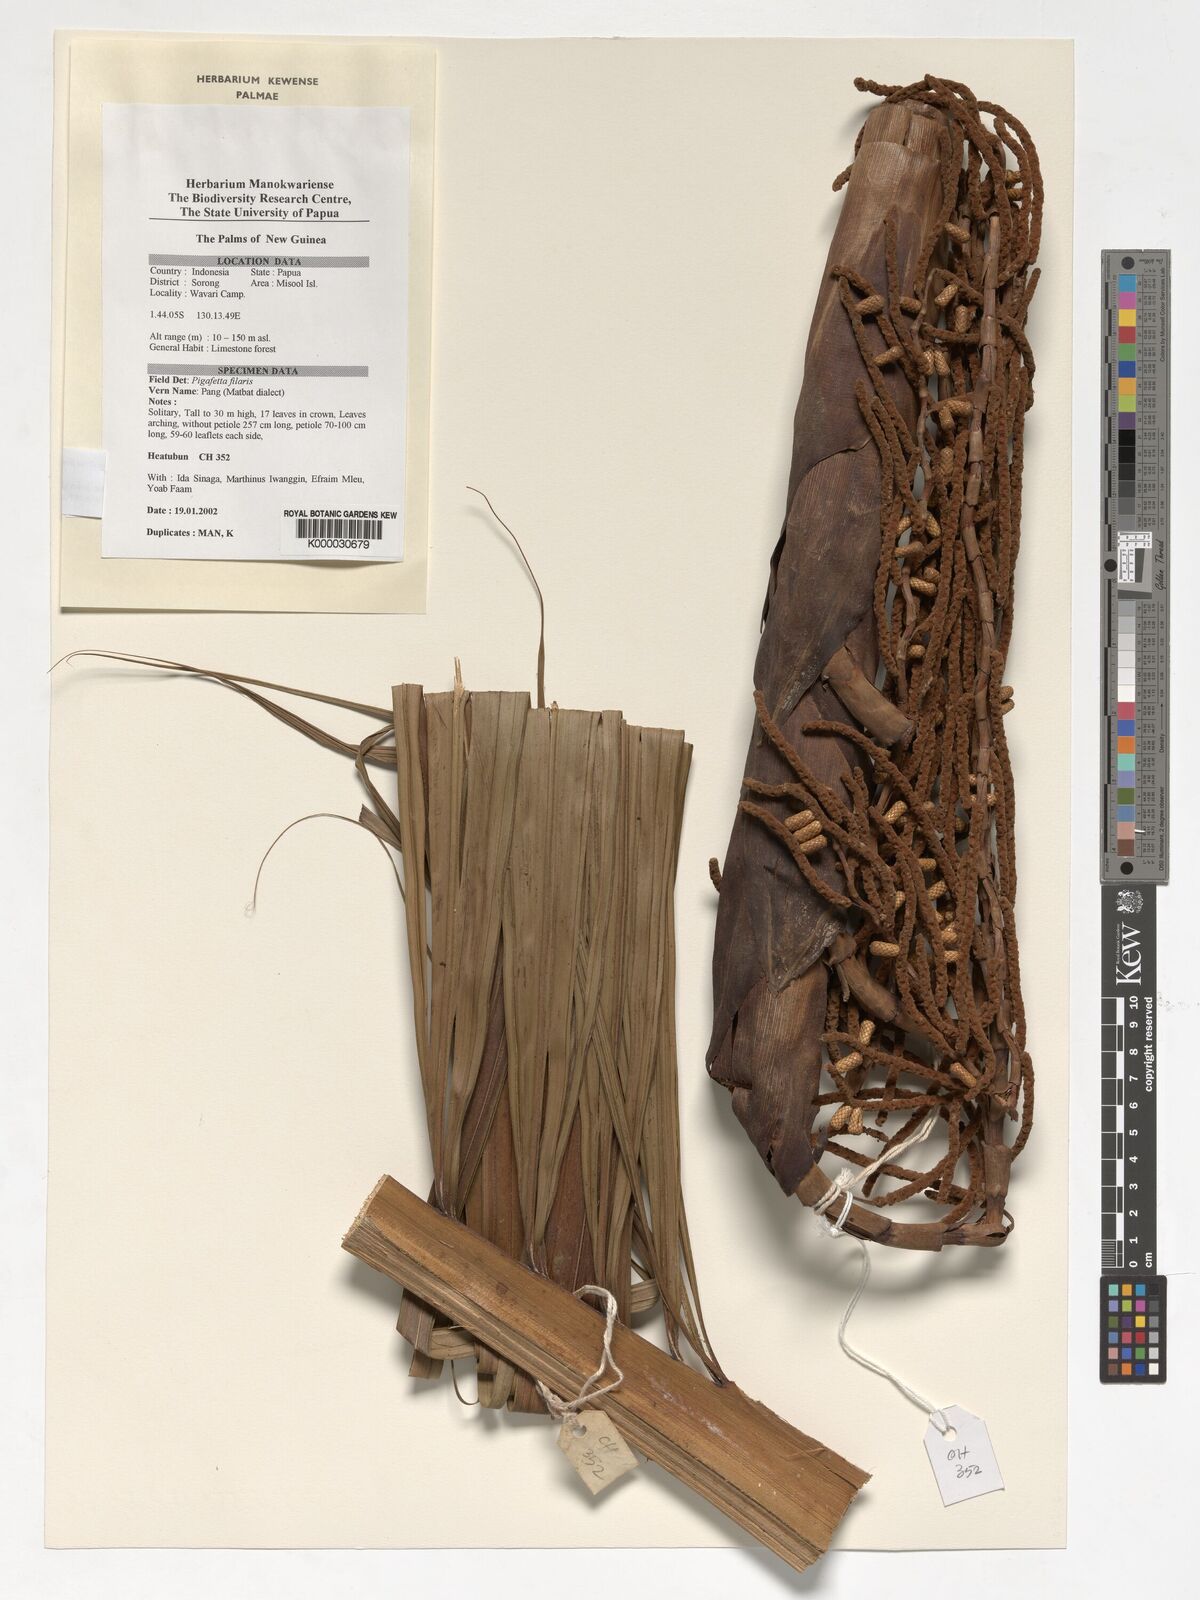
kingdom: Plantae
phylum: Tracheophyta
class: Liliopsida
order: Arecales
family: Arecaceae
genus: Pigafetta
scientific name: Pigafetta filaris
